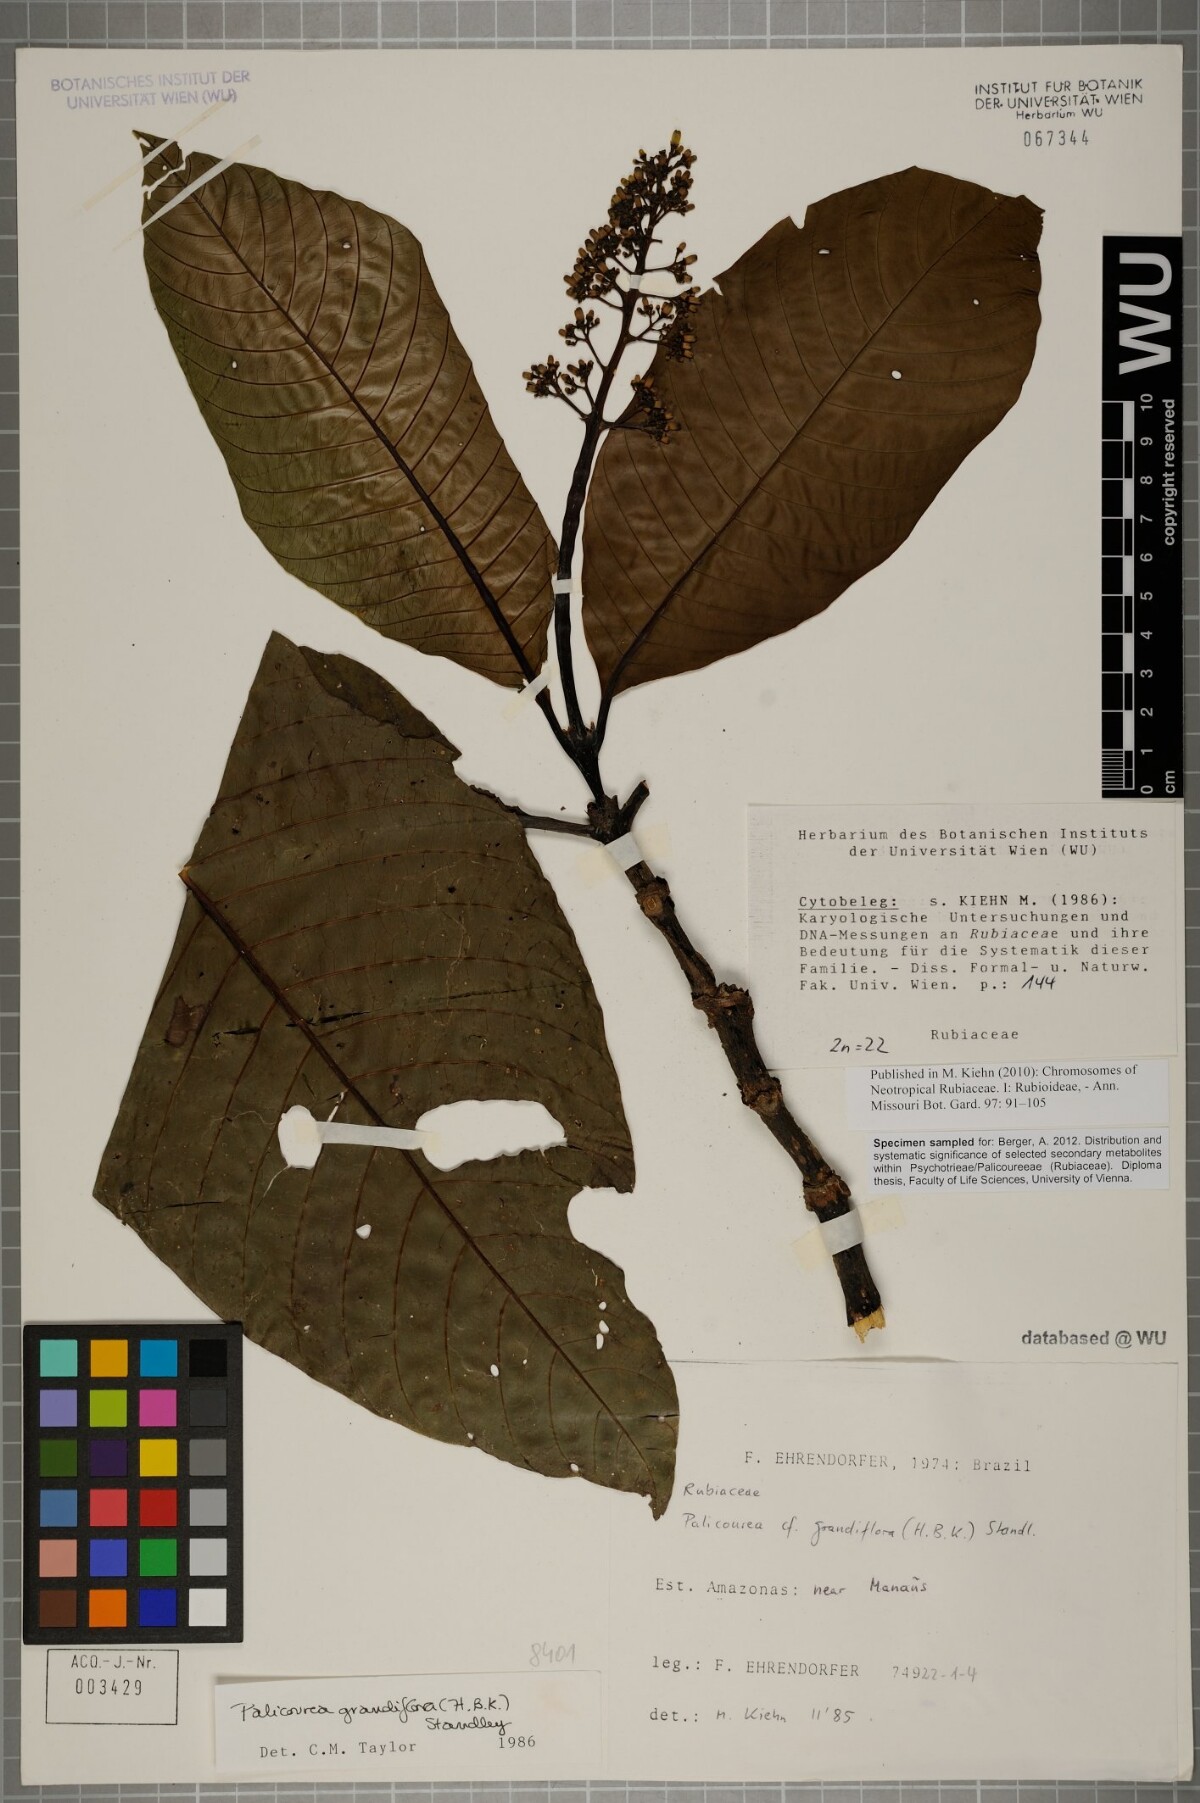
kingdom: Plantae
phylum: Tracheophyta
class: Magnoliopsida
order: Gentianales
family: Rubiaceae
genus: Palicourea
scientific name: Palicourea grandiflora
